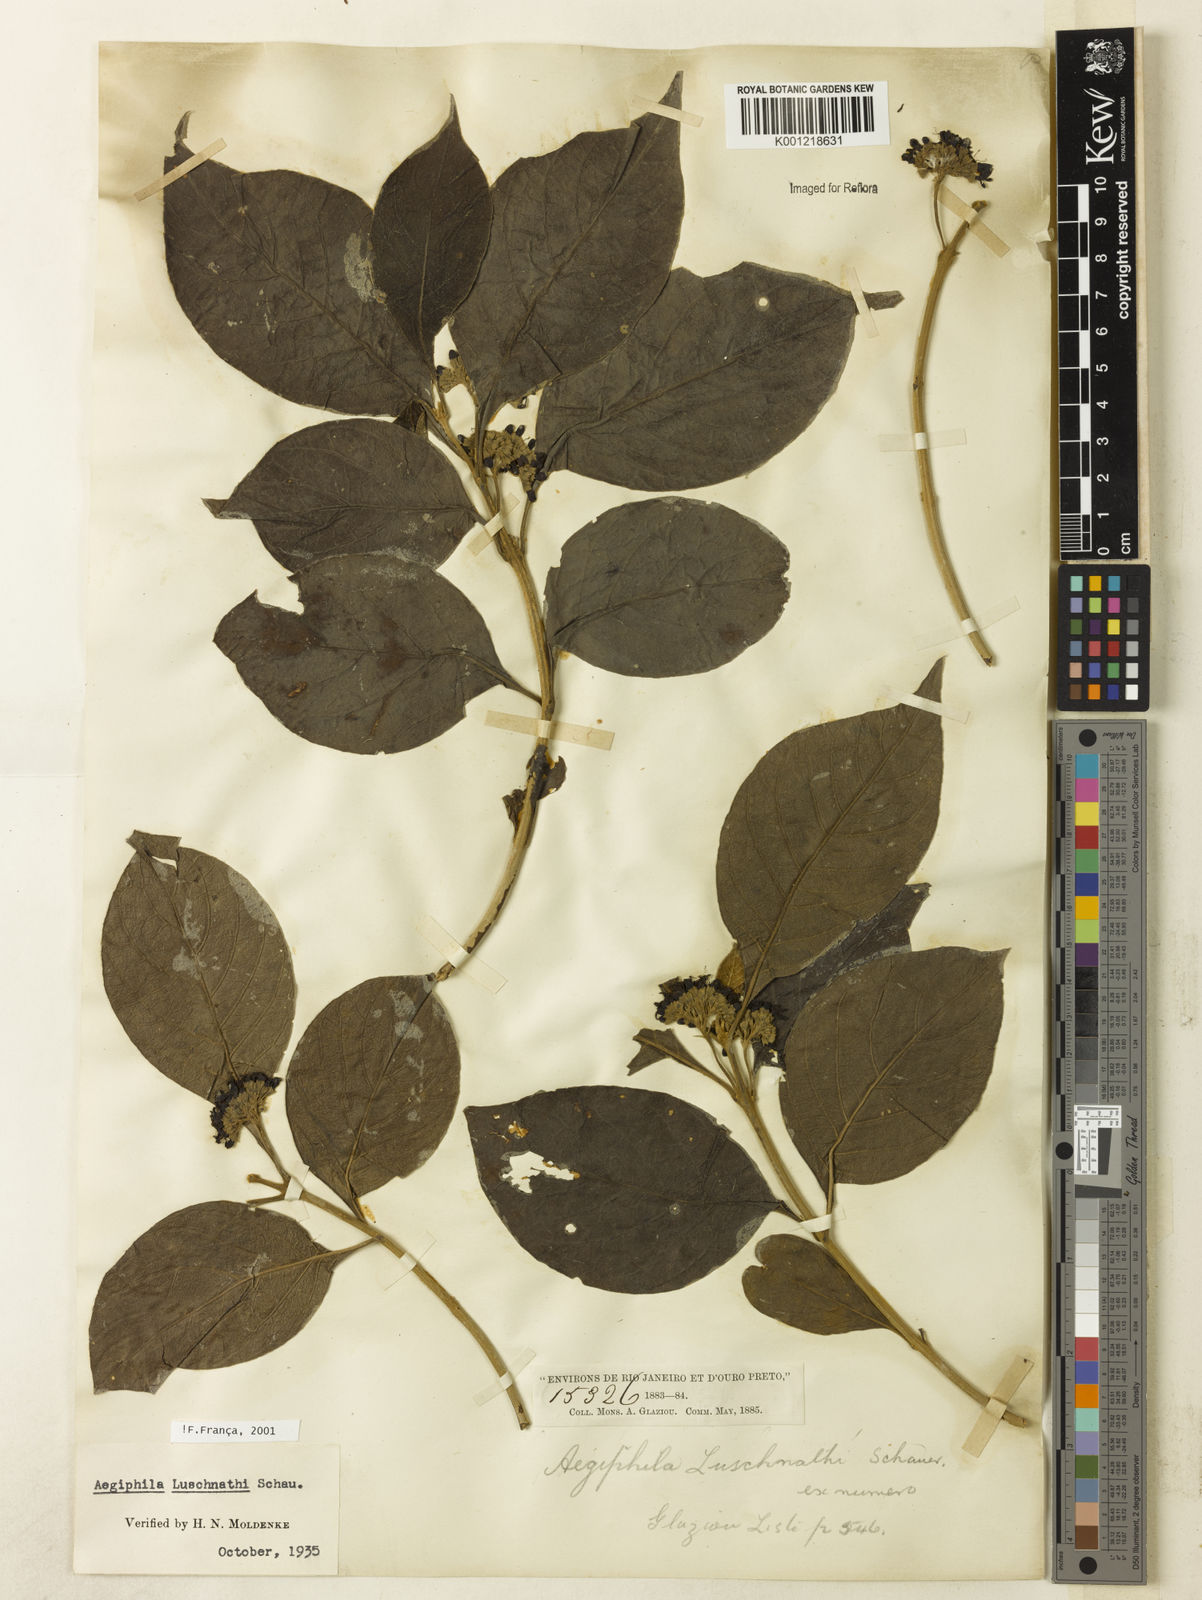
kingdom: Plantae
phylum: Tracheophyta
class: Magnoliopsida
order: Lamiales
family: Lamiaceae
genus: Aegiphila
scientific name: Aegiphila luschnathii
